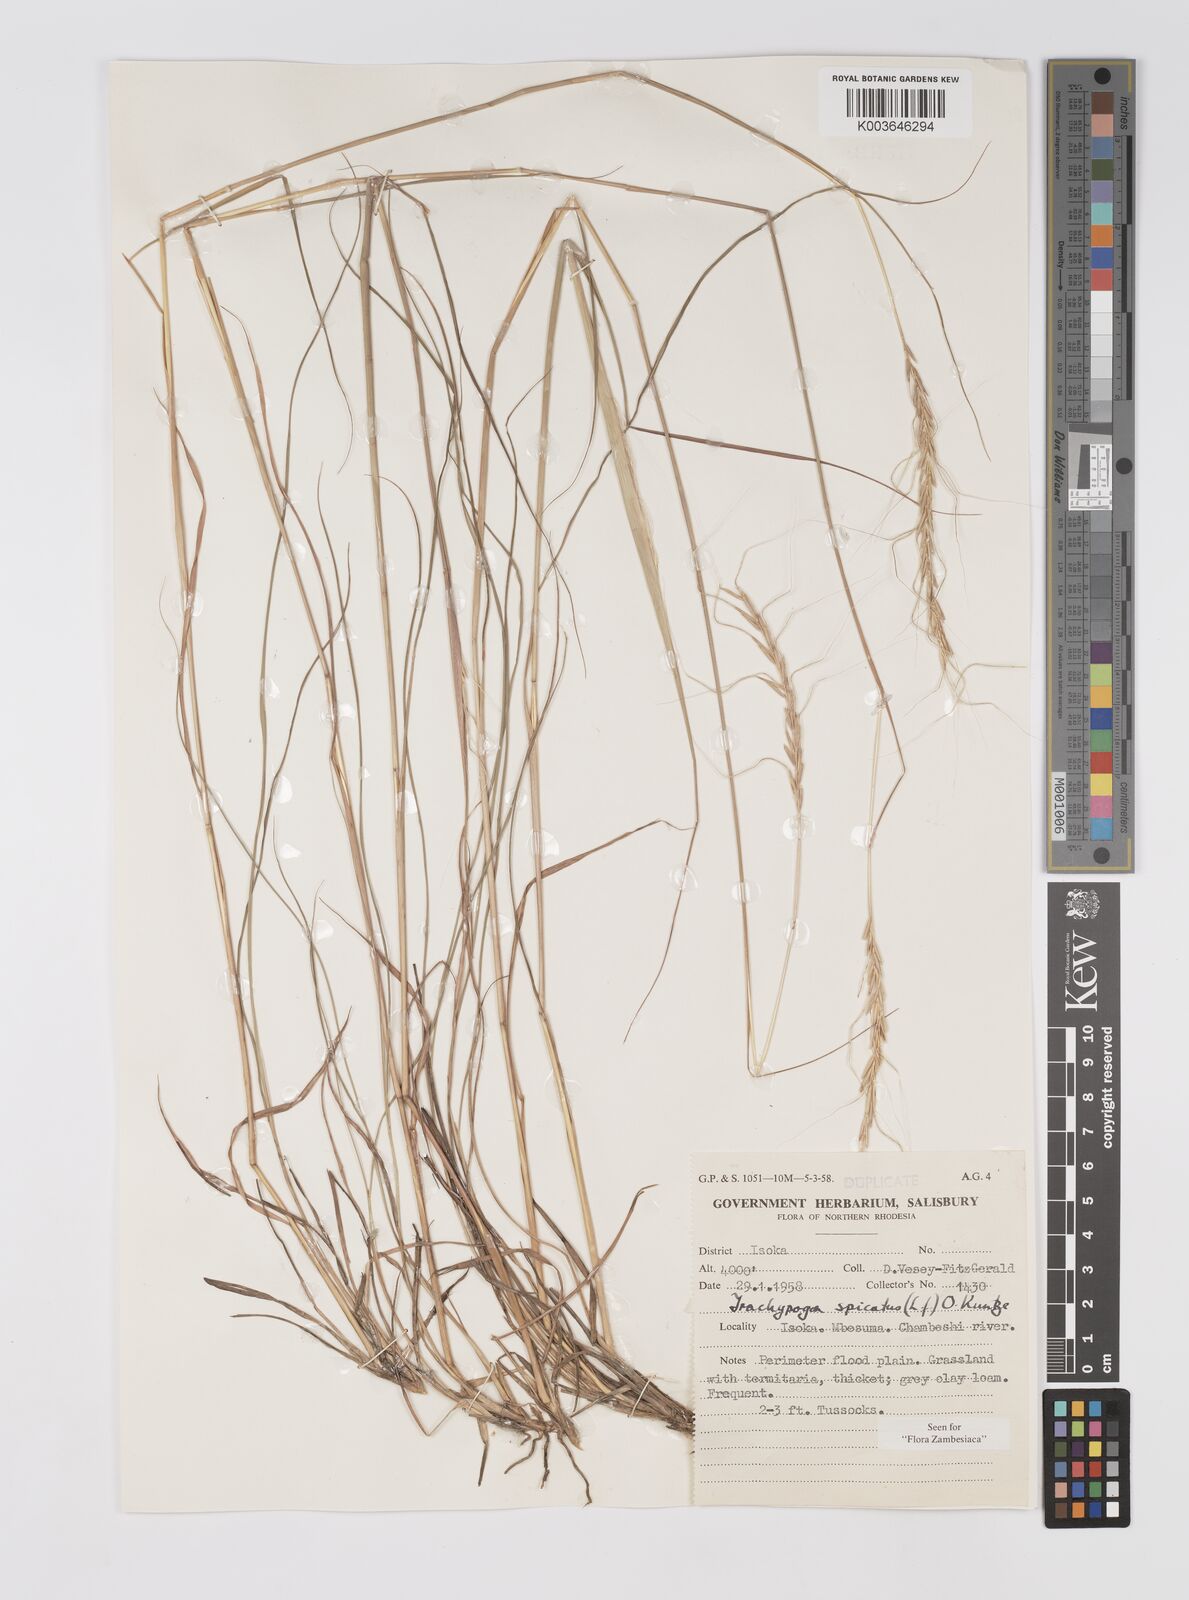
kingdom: Plantae
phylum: Tracheophyta
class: Liliopsida
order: Poales
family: Poaceae
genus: Trachypogon
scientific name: Trachypogon spicatus
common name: Crinkle-awn
